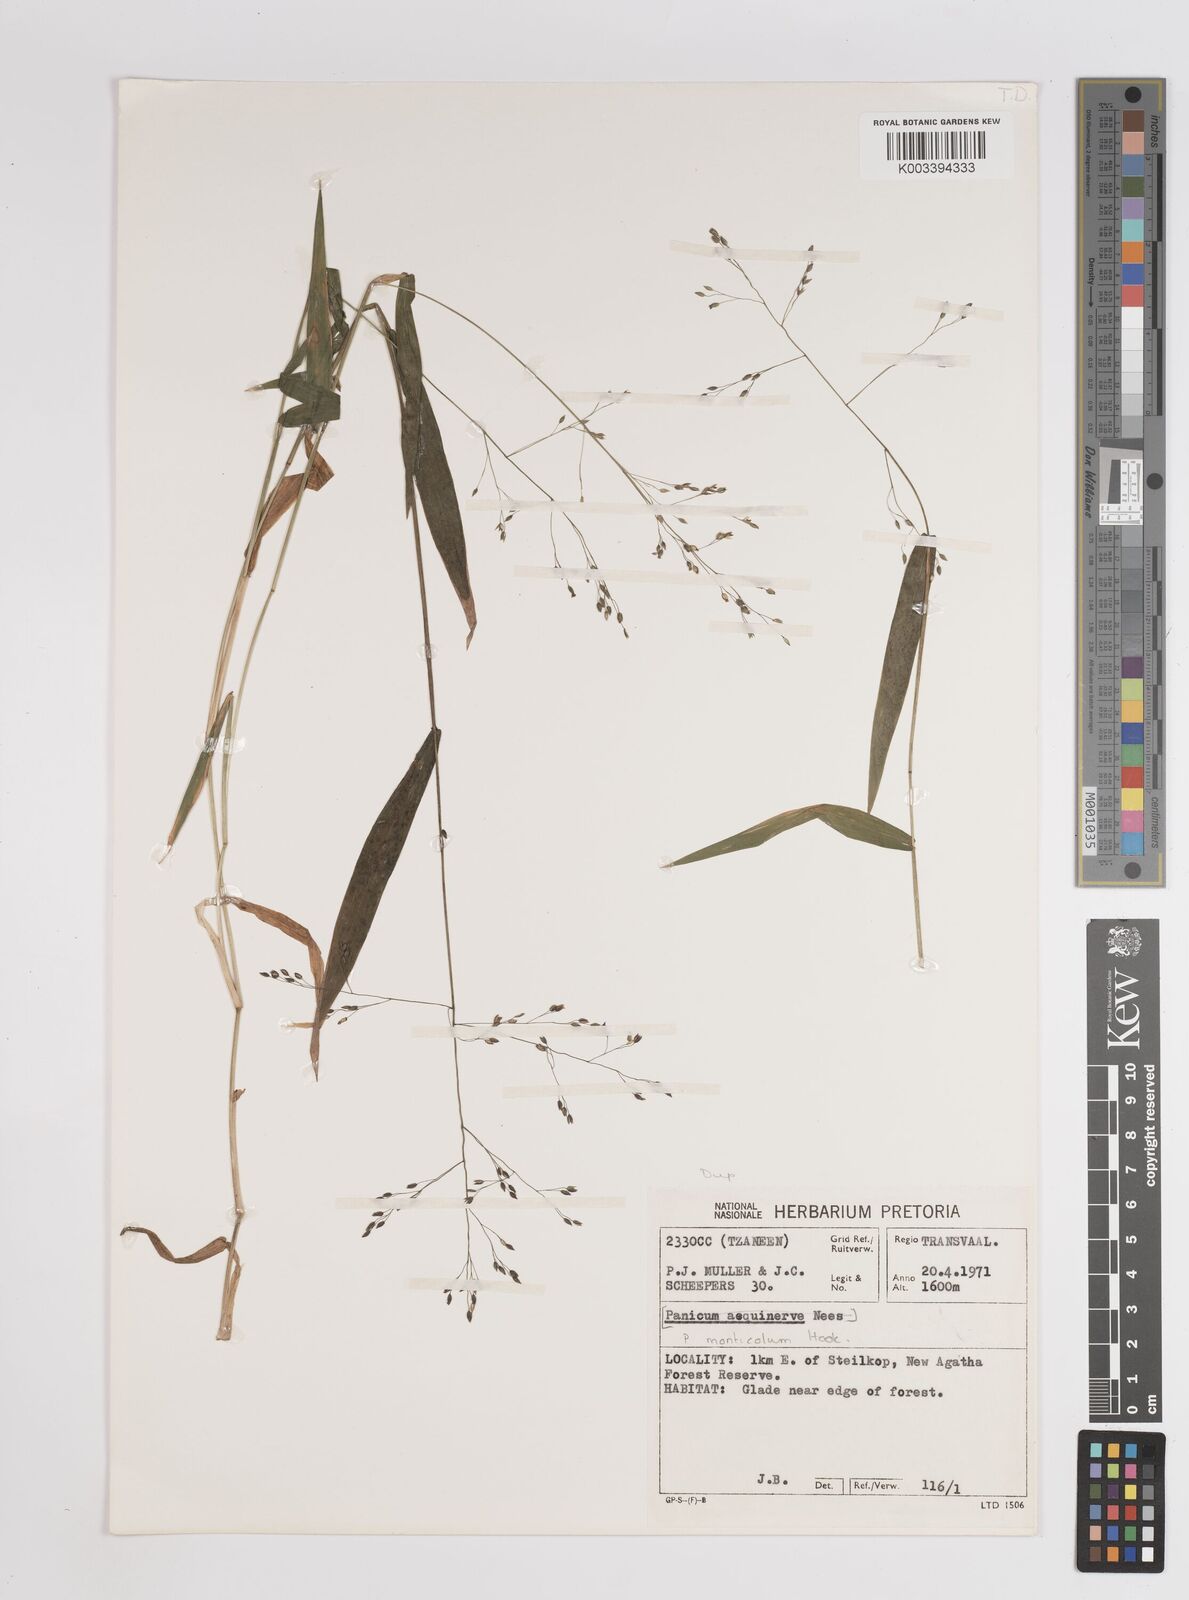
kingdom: Plantae
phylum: Tracheophyta
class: Liliopsida
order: Poales
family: Poaceae
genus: Panicum
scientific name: Panicum monticola
